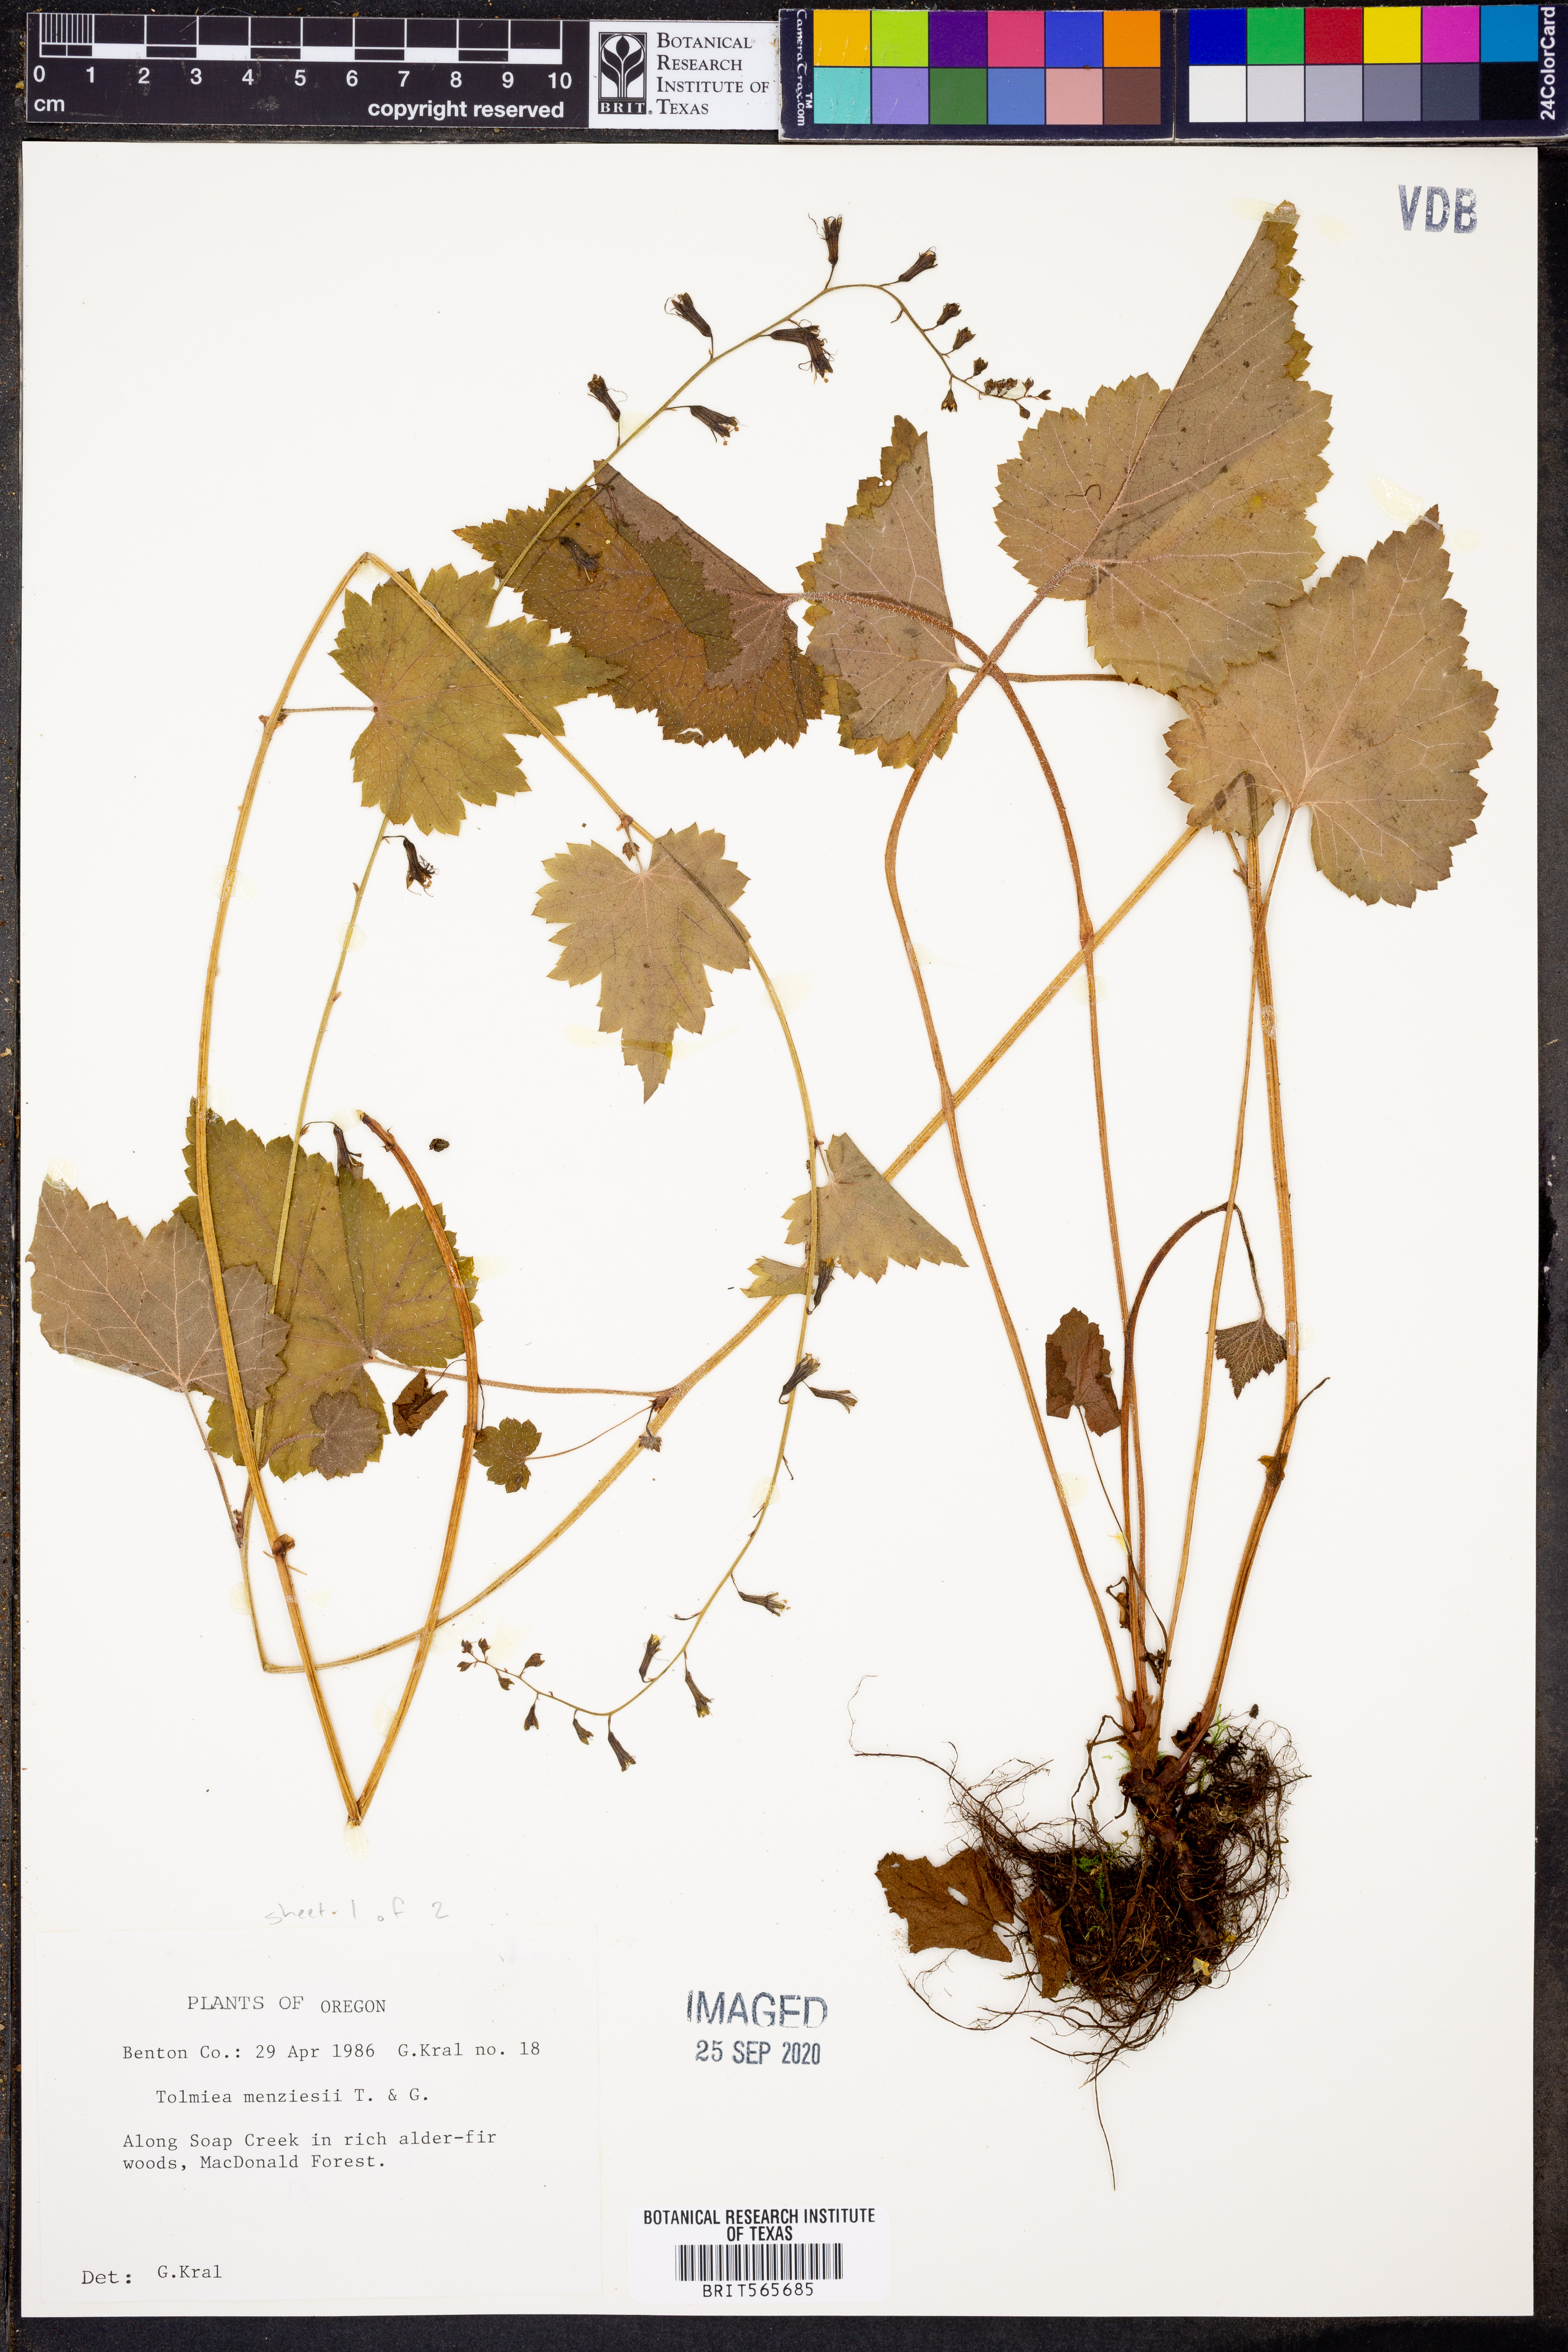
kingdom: Plantae
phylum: Tracheophyta
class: Magnoliopsida
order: Saxifragales
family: Saxifragaceae
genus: Tolmiea
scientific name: Tolmiea menziesii
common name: Pick-a-back-plant
